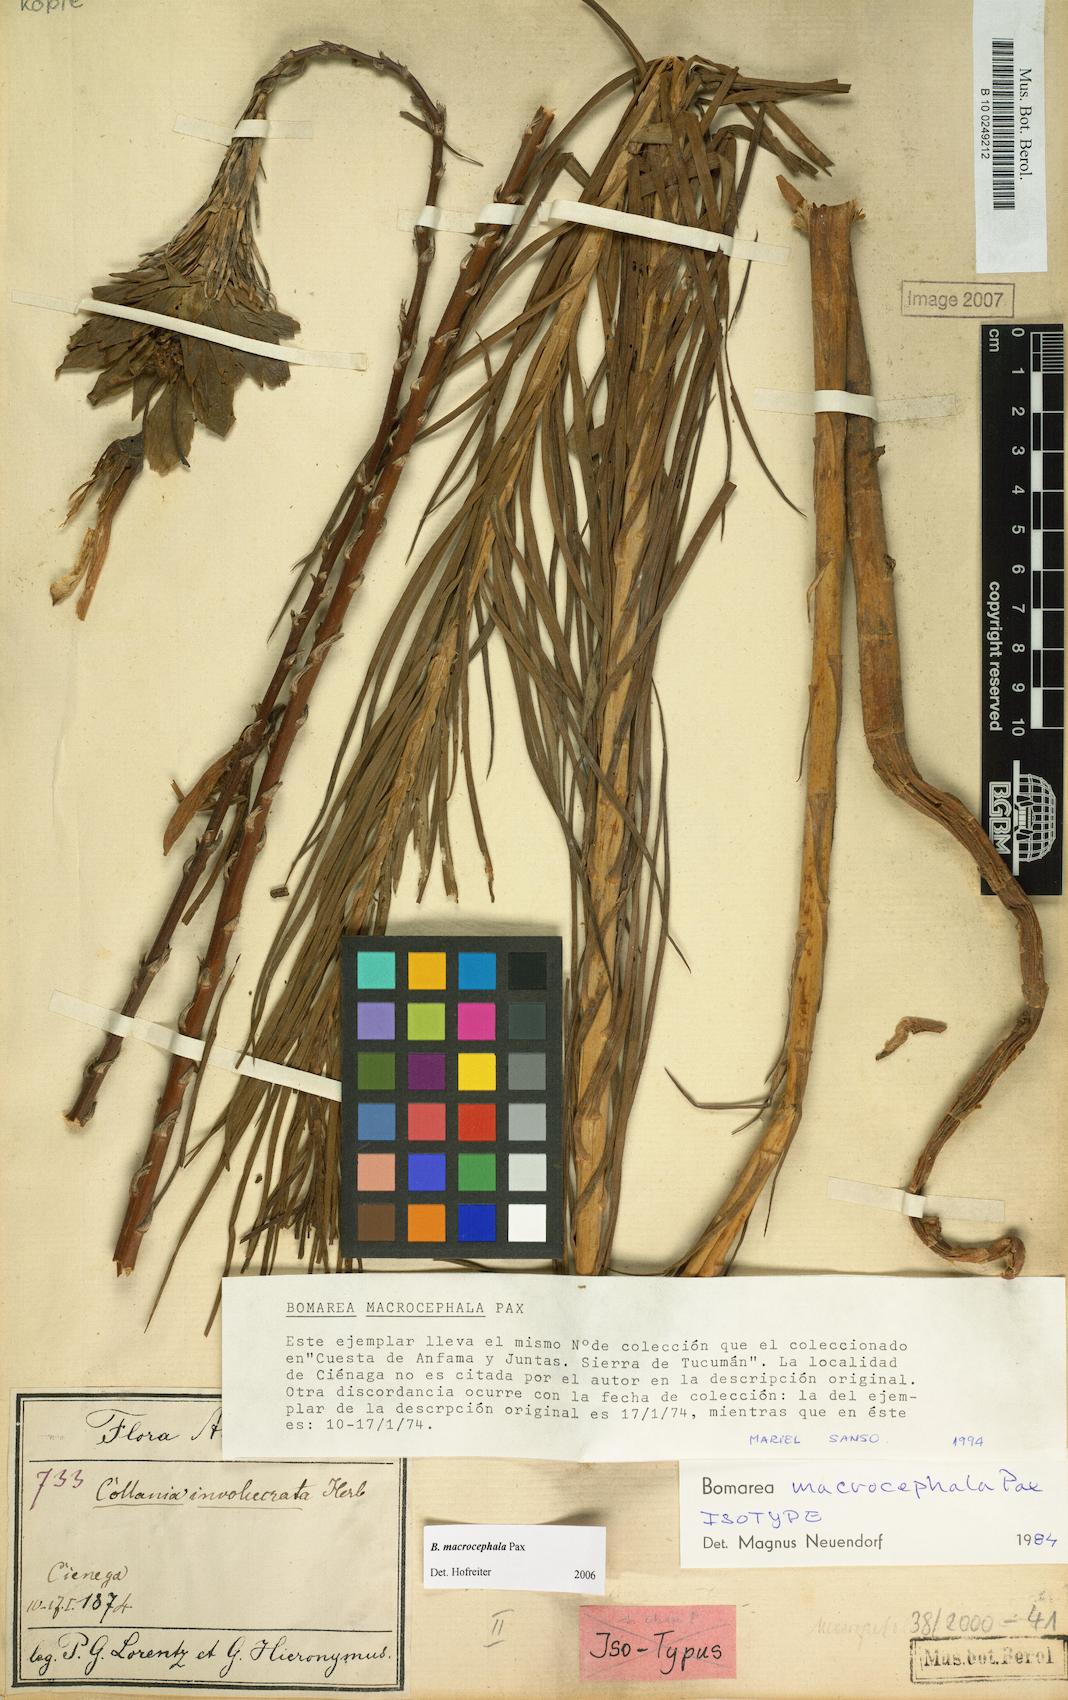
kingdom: Plantae
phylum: Tracheophyta
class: Liliopsida
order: Liliales
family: Alstroemeriaceae
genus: Bomarea
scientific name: Bomarea macrocephala
